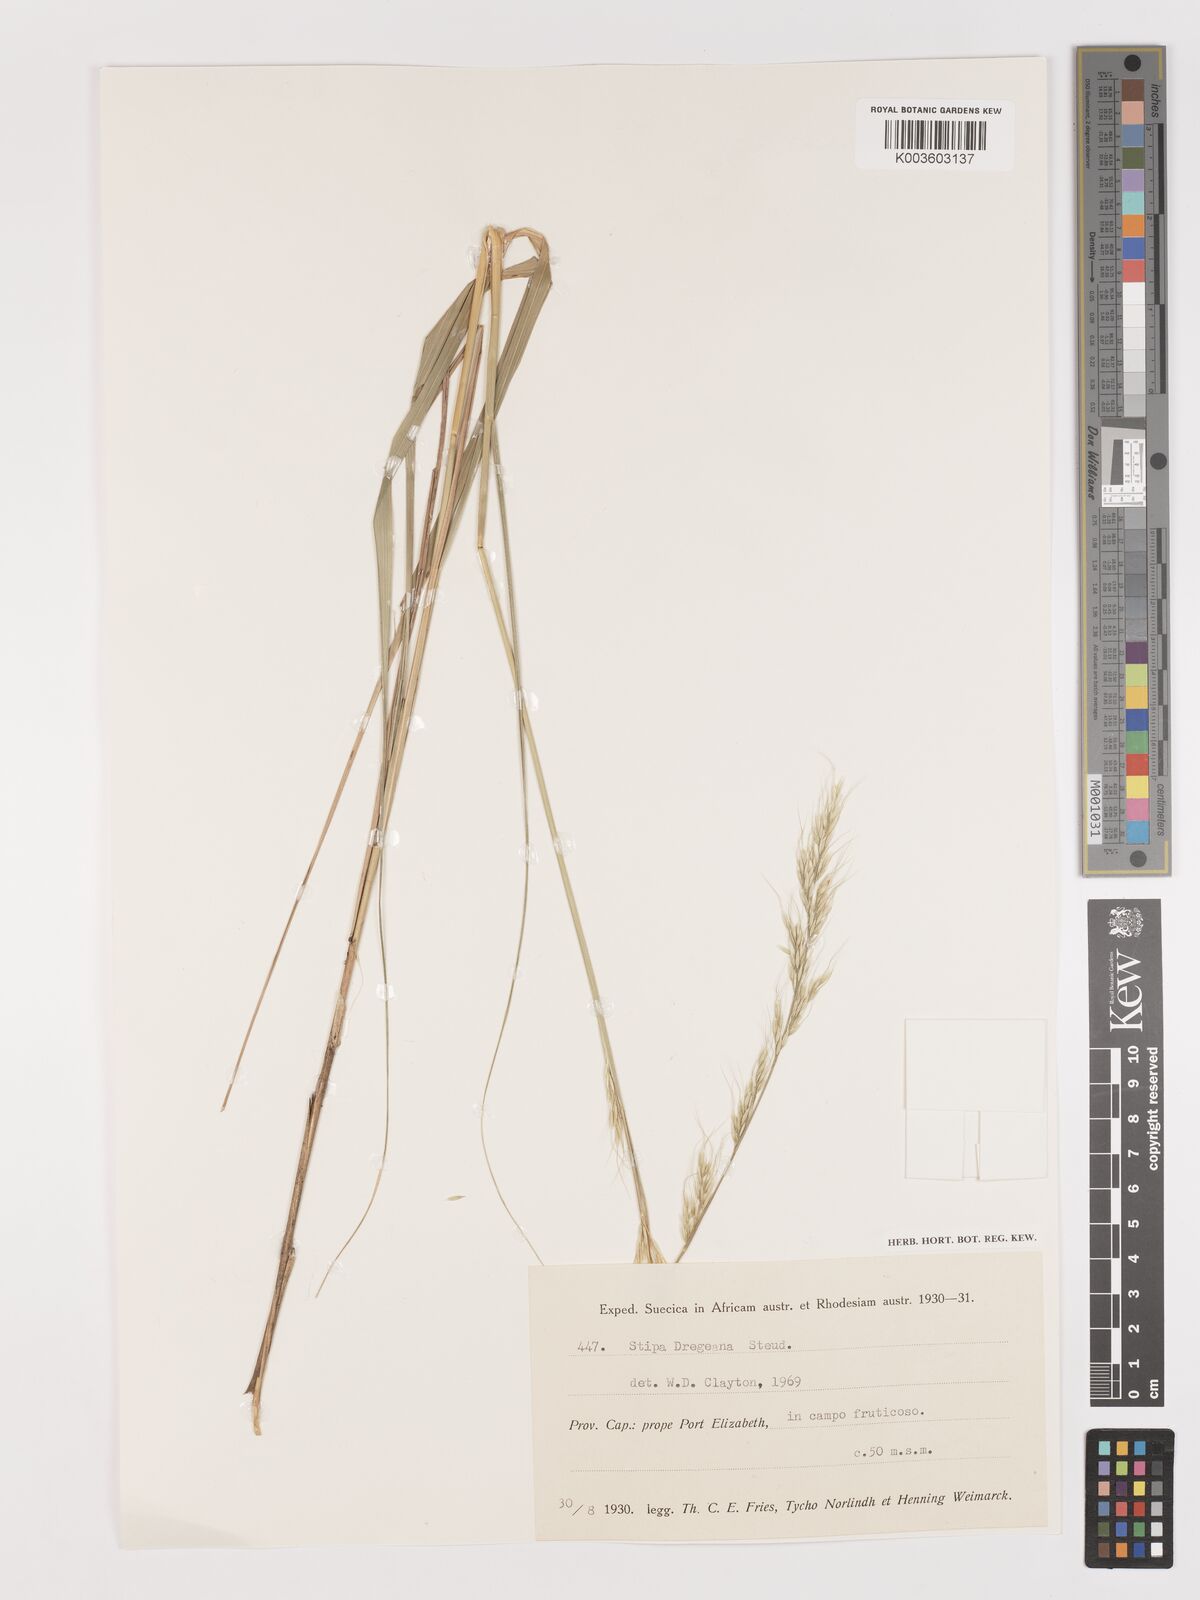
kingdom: Plantae
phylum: Tracheophyta
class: Liliopsida
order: Poales
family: Poaceae
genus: Stipa
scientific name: Stipa dregeana
